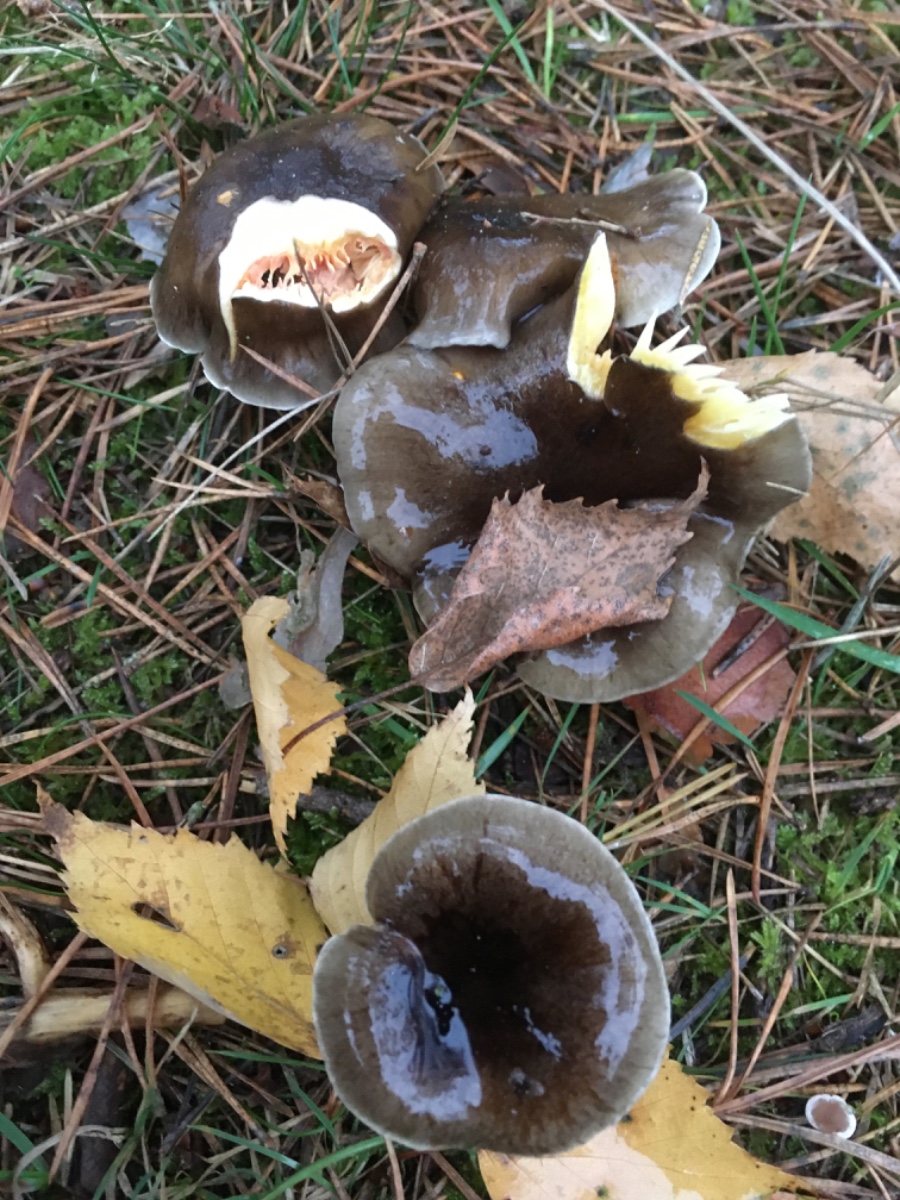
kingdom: Fungi
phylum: Basidiomycota
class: Agaricomycetes
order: Agaricales
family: Hygrophoraceae
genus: Hygrophorus
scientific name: Hygrophorus hypothejus
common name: frost-sneglehat
